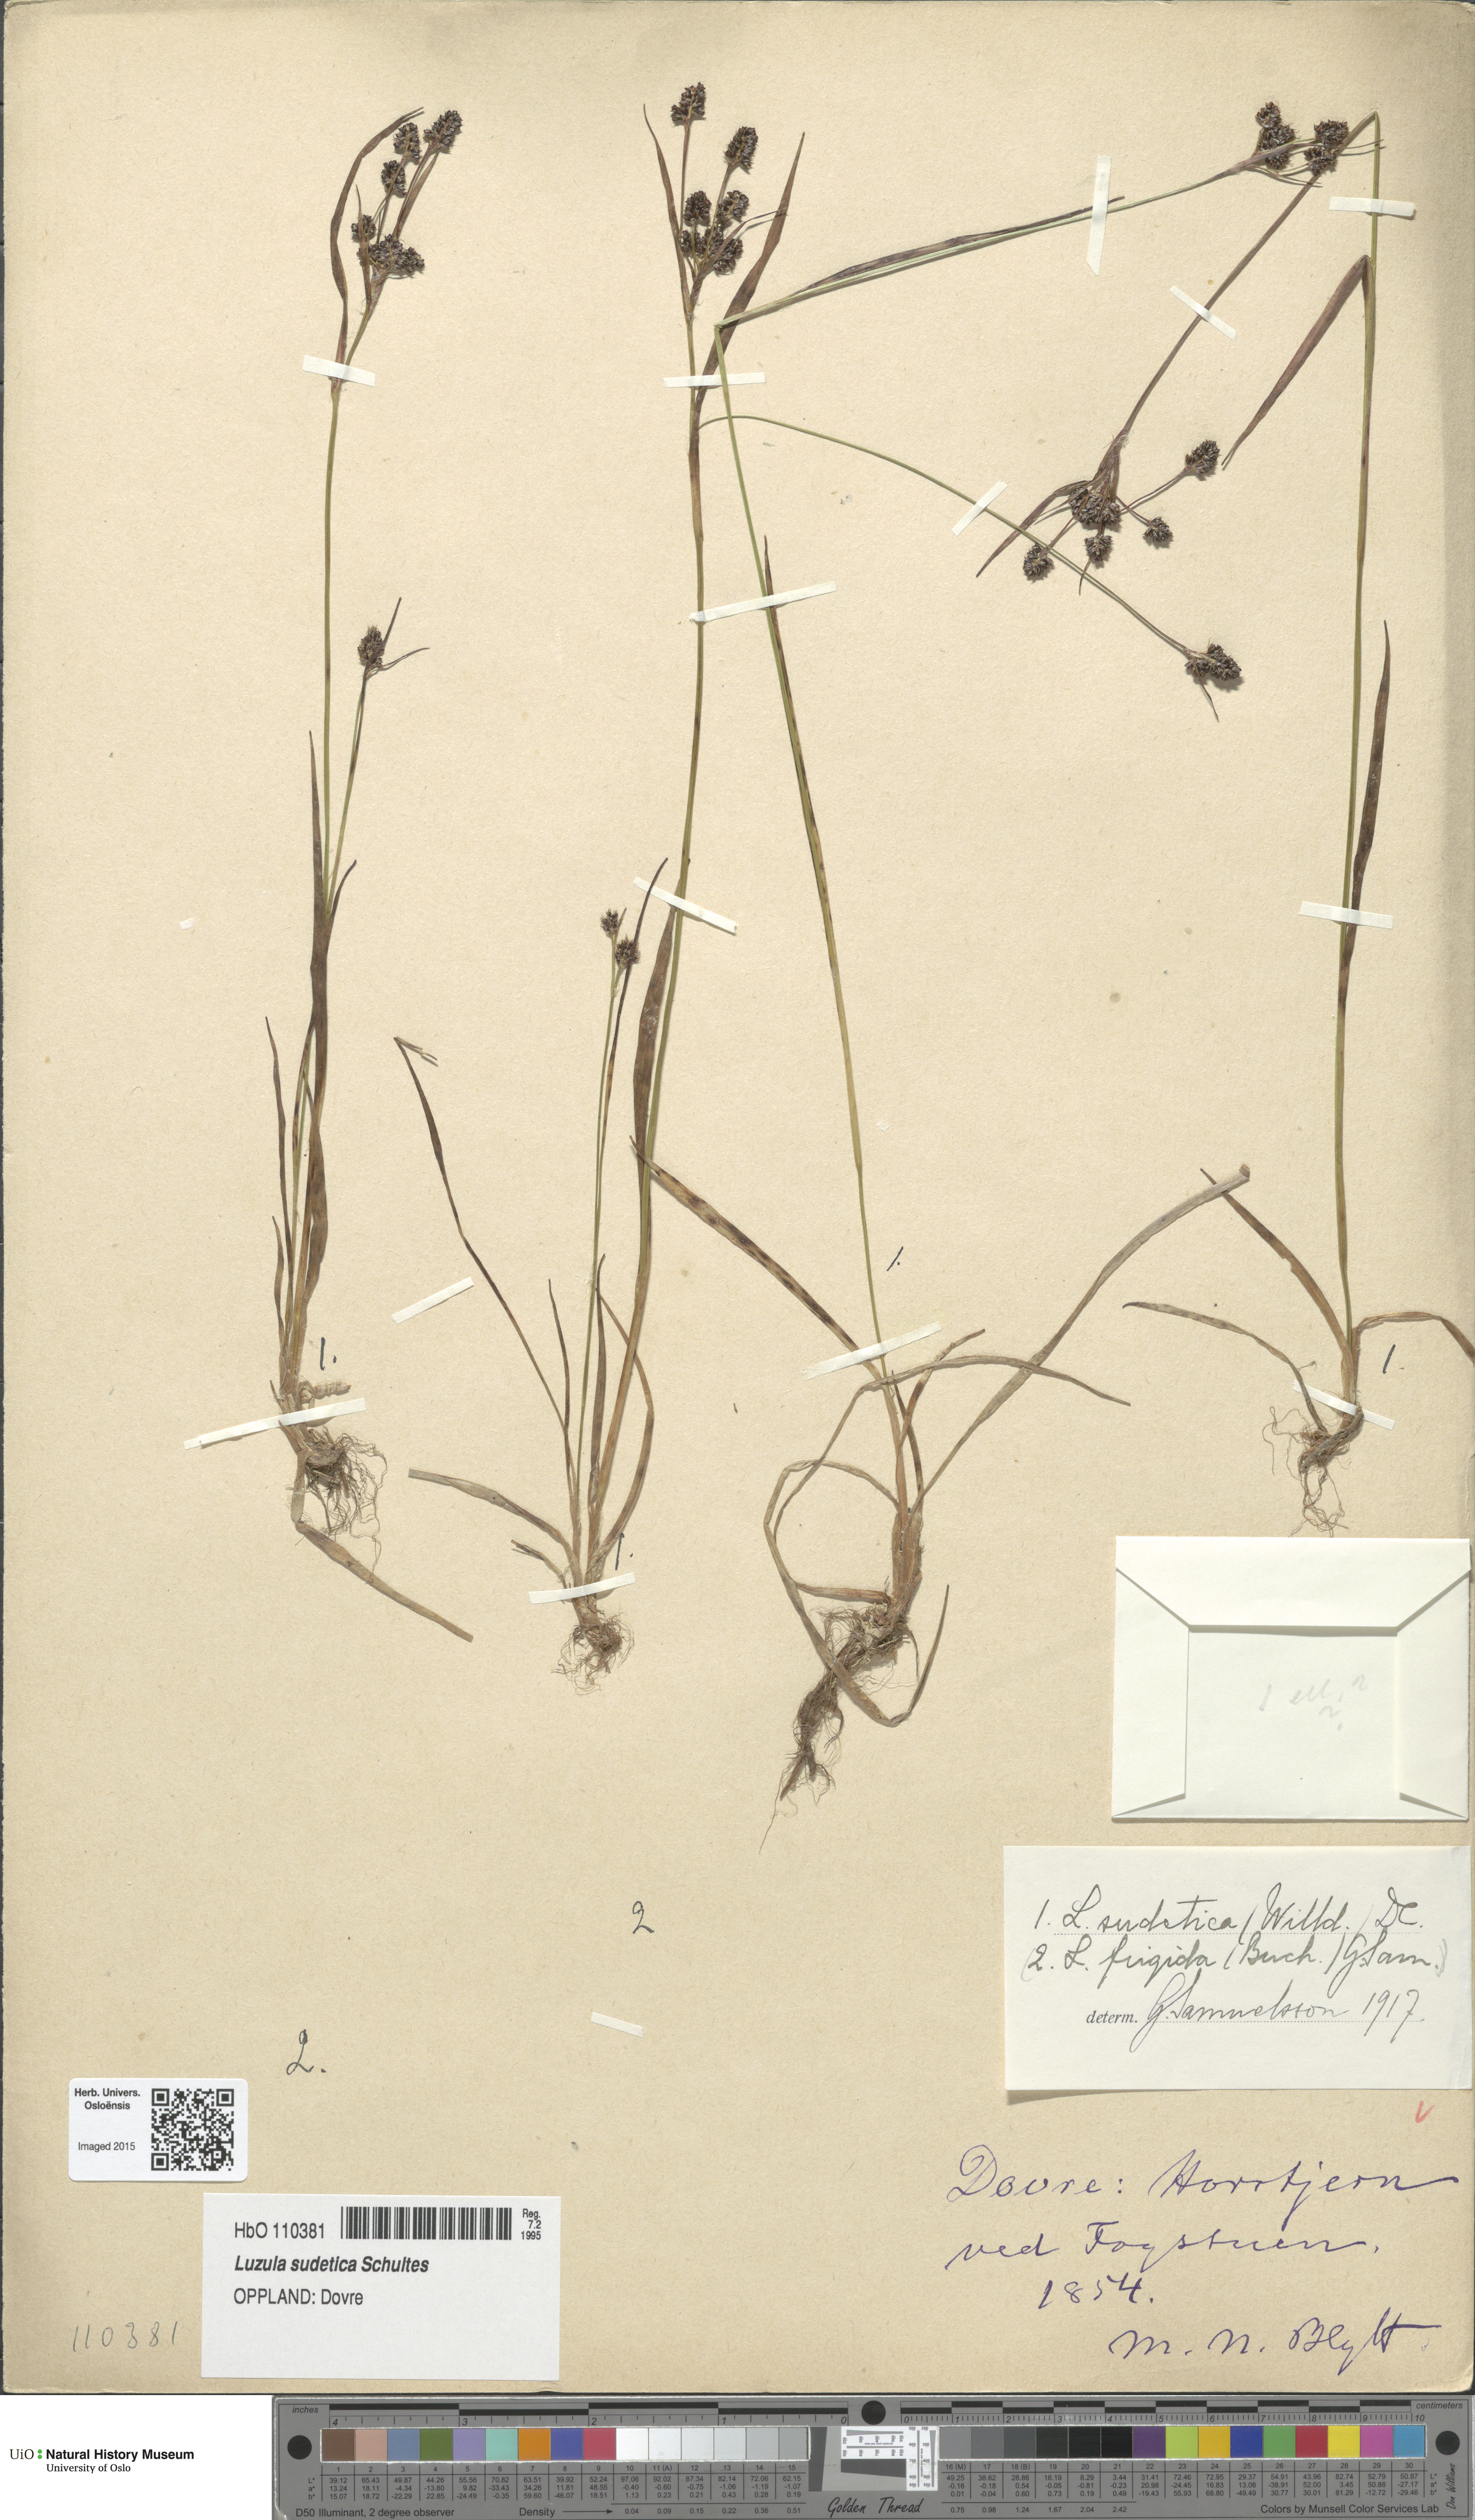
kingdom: Plantae
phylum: Tracheophyta
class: Liliopsida
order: Poales
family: Juncaceae
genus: Luzula
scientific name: Luzula sudetica
